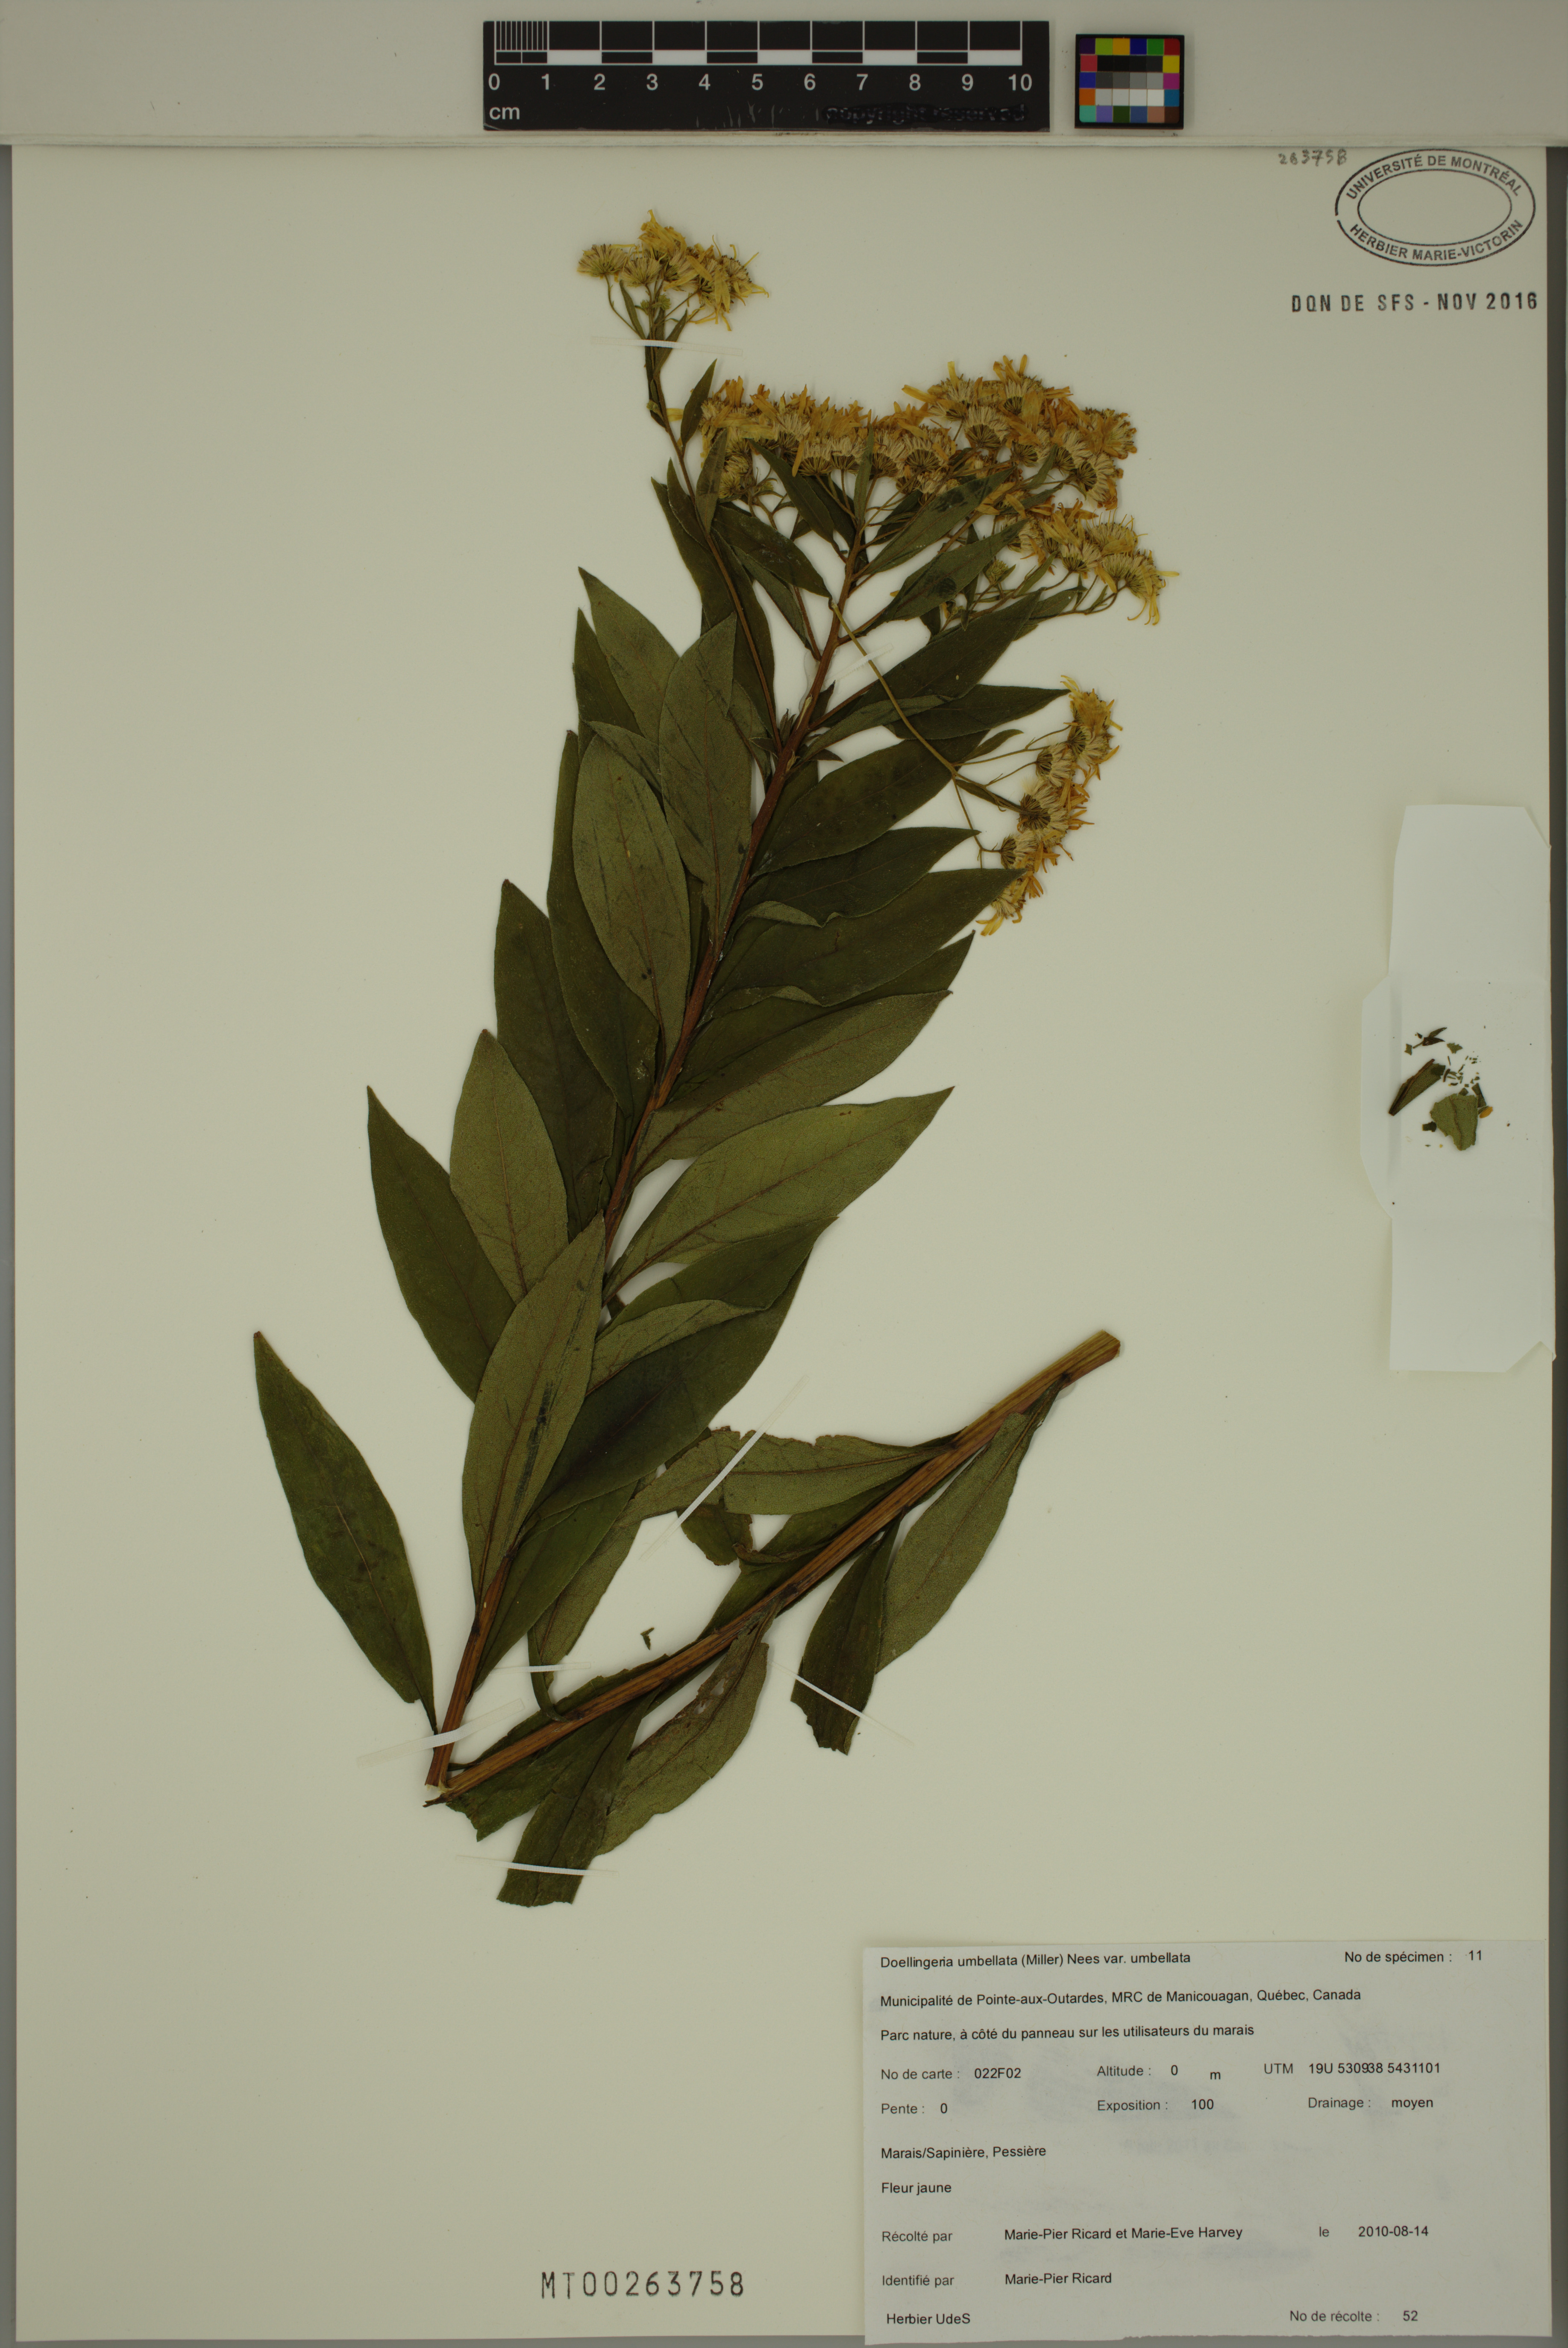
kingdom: Plantae
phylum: Tracheophyta
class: Magnoliopsida
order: Asterales
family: Asteraceae
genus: Doellingeria
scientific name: Doellingeria umbellata
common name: Flat-top white aster
